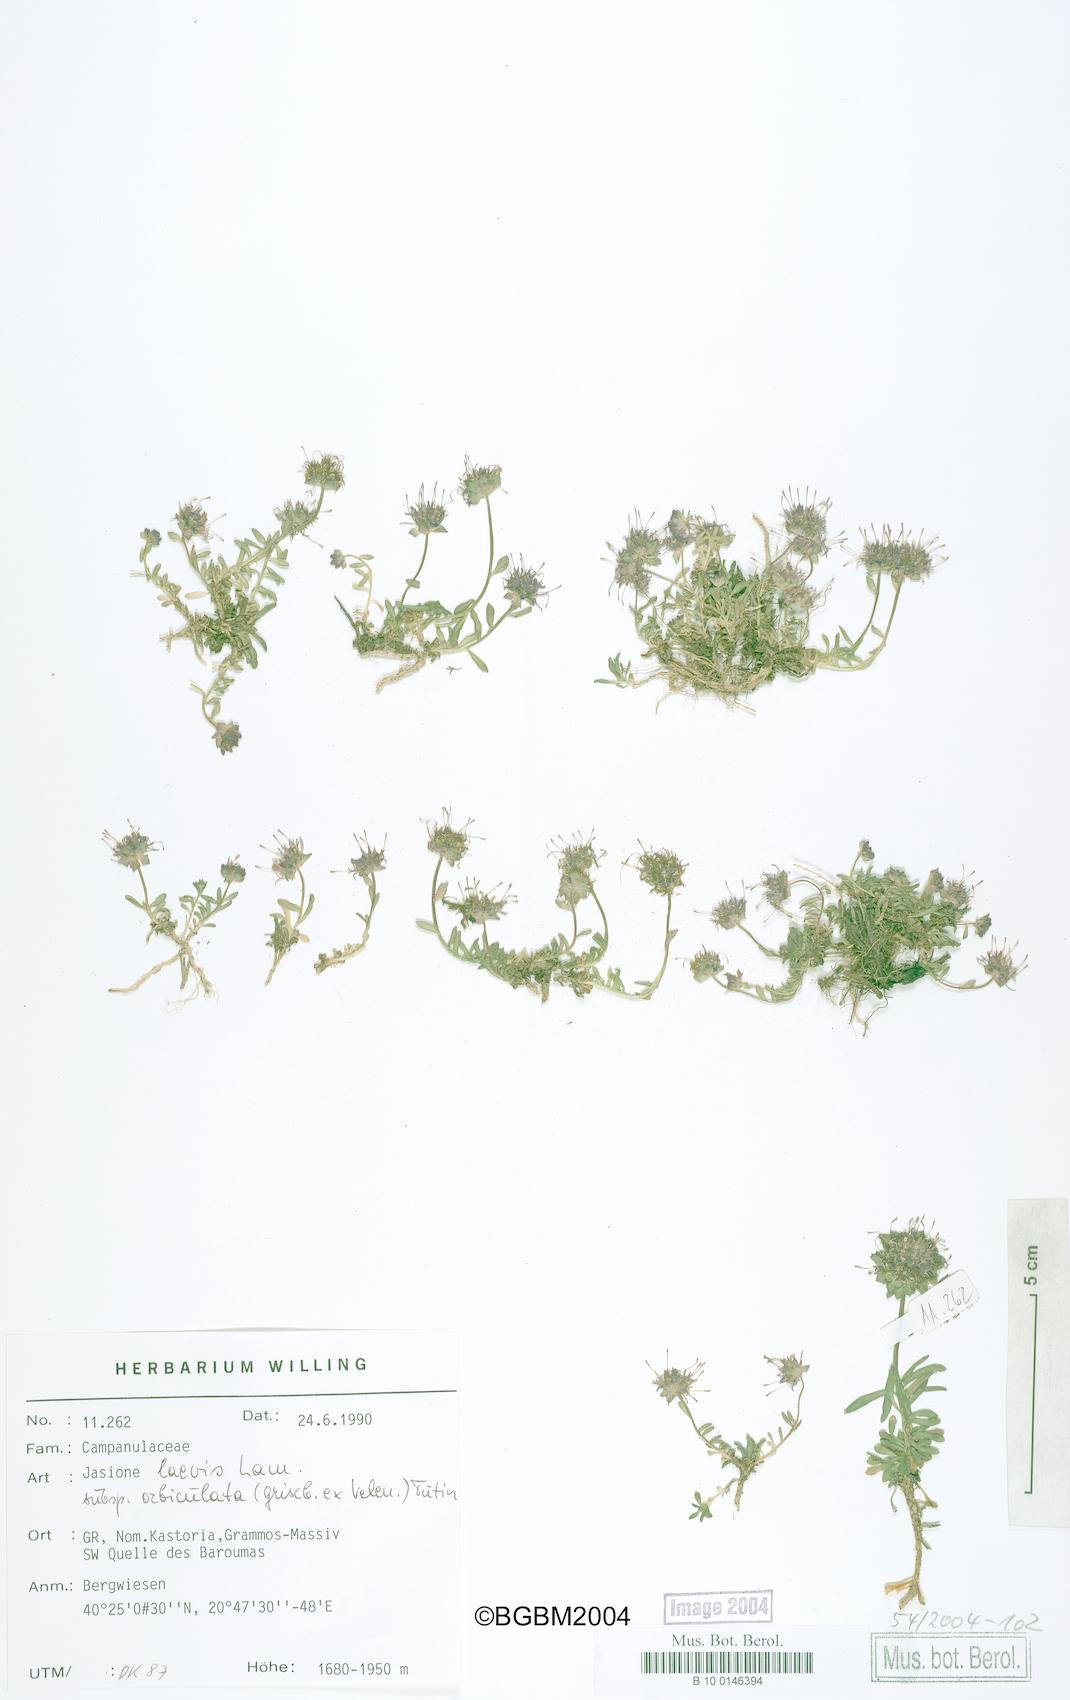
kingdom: Plantae
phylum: Tracheophyta
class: Magnoliopsida
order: Asterales
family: Campanulaceae
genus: Jasione
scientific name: Jasione orbiculata
